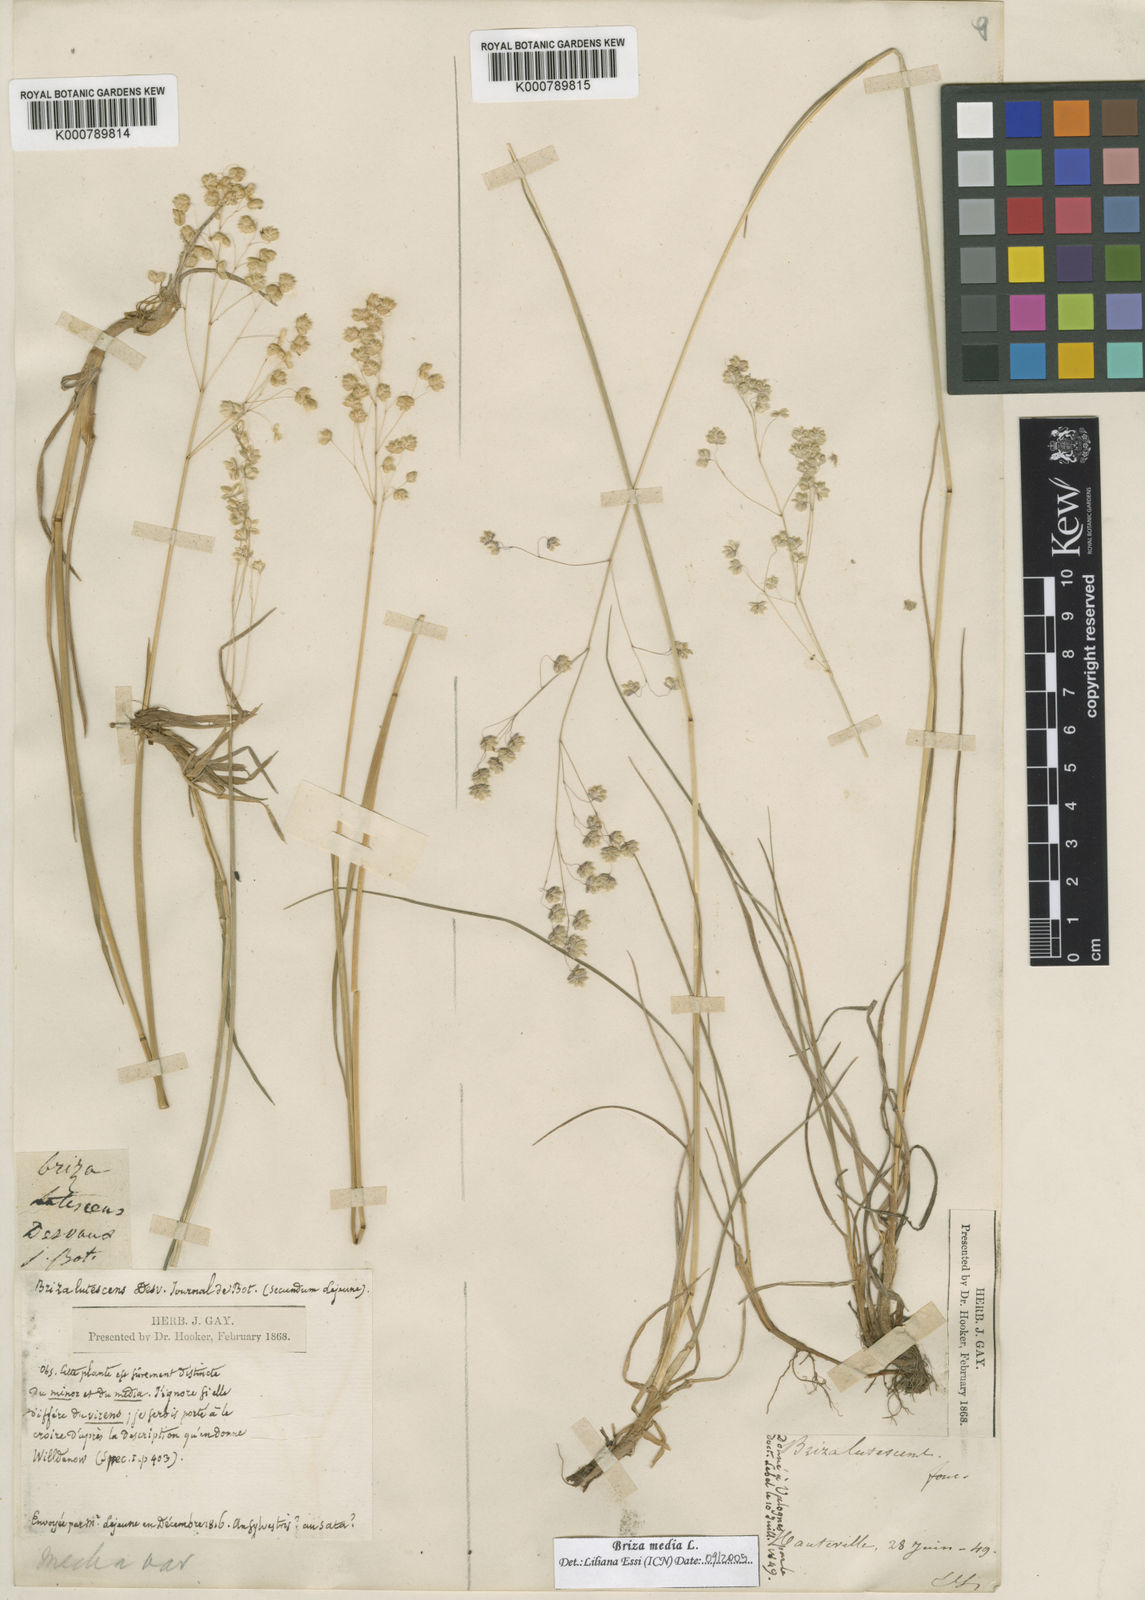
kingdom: Plantae
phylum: Tracheophyta
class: Liliopsida
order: Poales
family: Poaceae
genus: Briza
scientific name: Briza media
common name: Quaking grass
